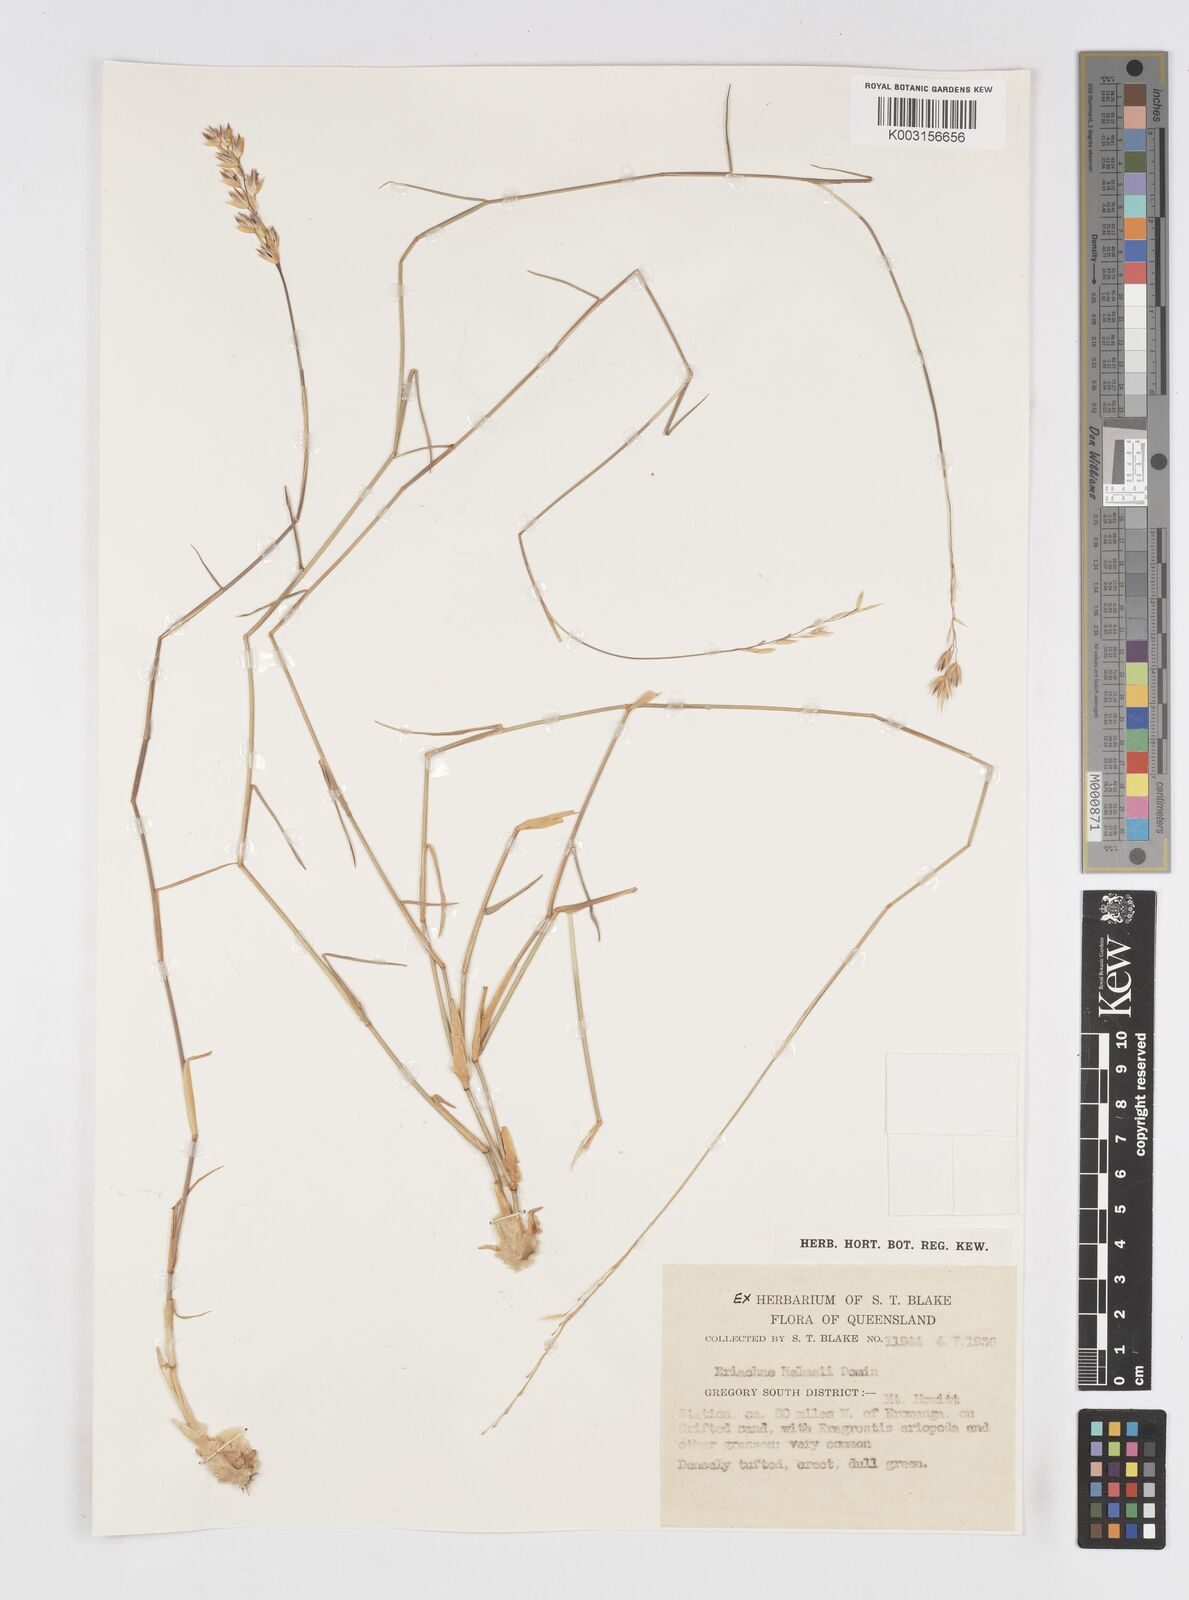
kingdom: Plantae
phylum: Tracheophyta
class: Liliopsida
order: Poales
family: Poaceae
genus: Eriachne
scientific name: Eriachne helmsii
